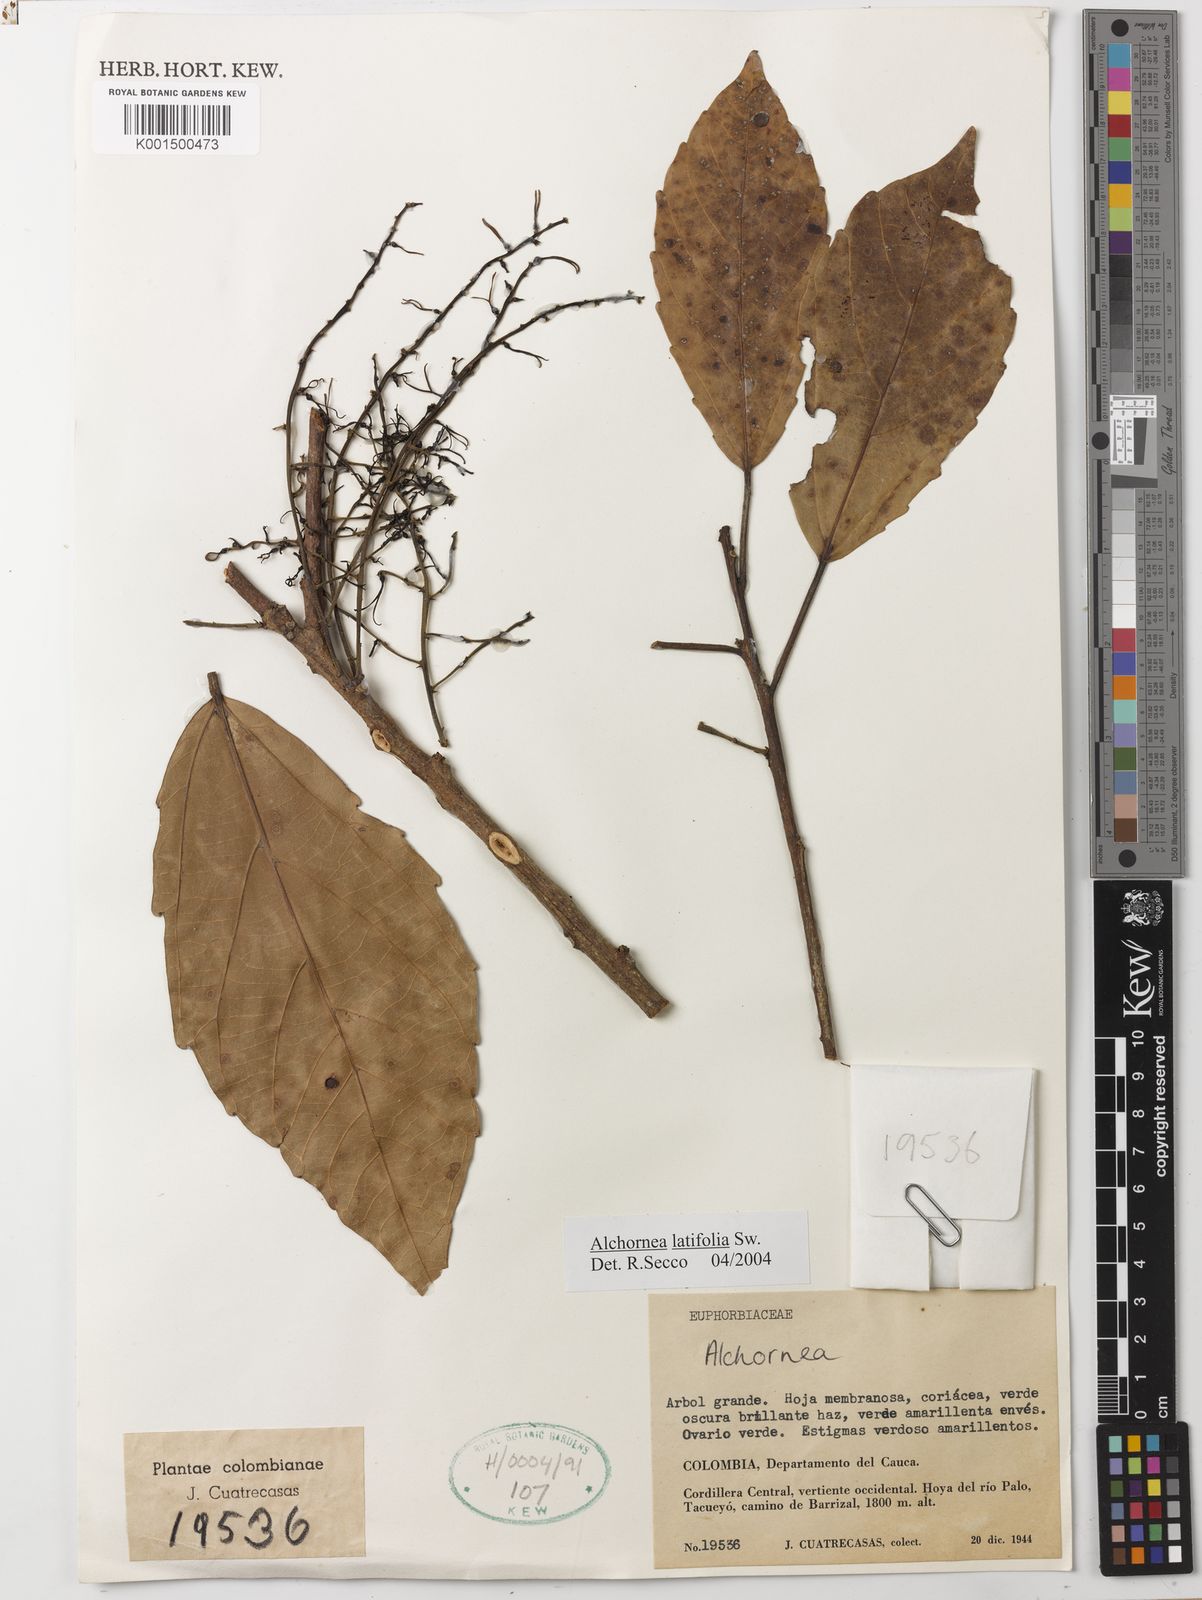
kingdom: Plantae
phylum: Tracheophyta
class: Magnoliopsida
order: Malpighiales
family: Euphorbiaceae
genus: Alchornea
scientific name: Alchornea latifolia
